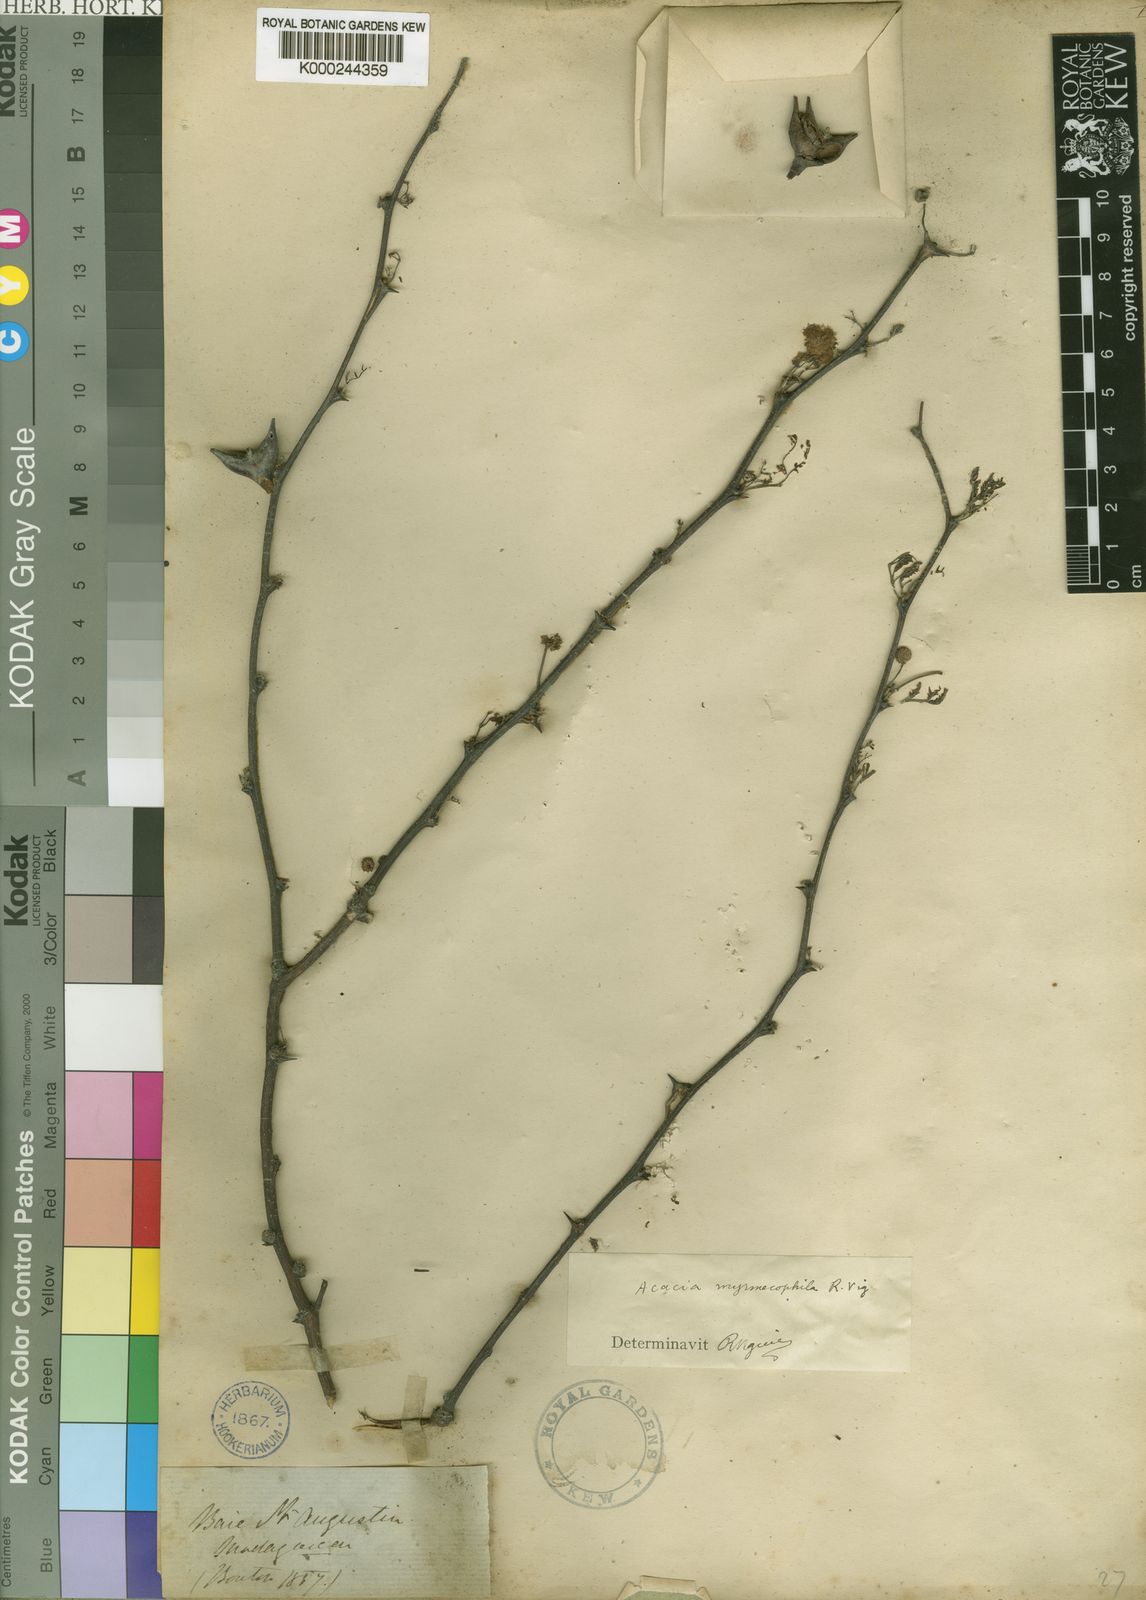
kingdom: Plantae
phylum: Tracheophyta
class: Magnoliopsida
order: Fabales
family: Fabaceae
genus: Vachellia
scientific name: Vachellia viguieri
